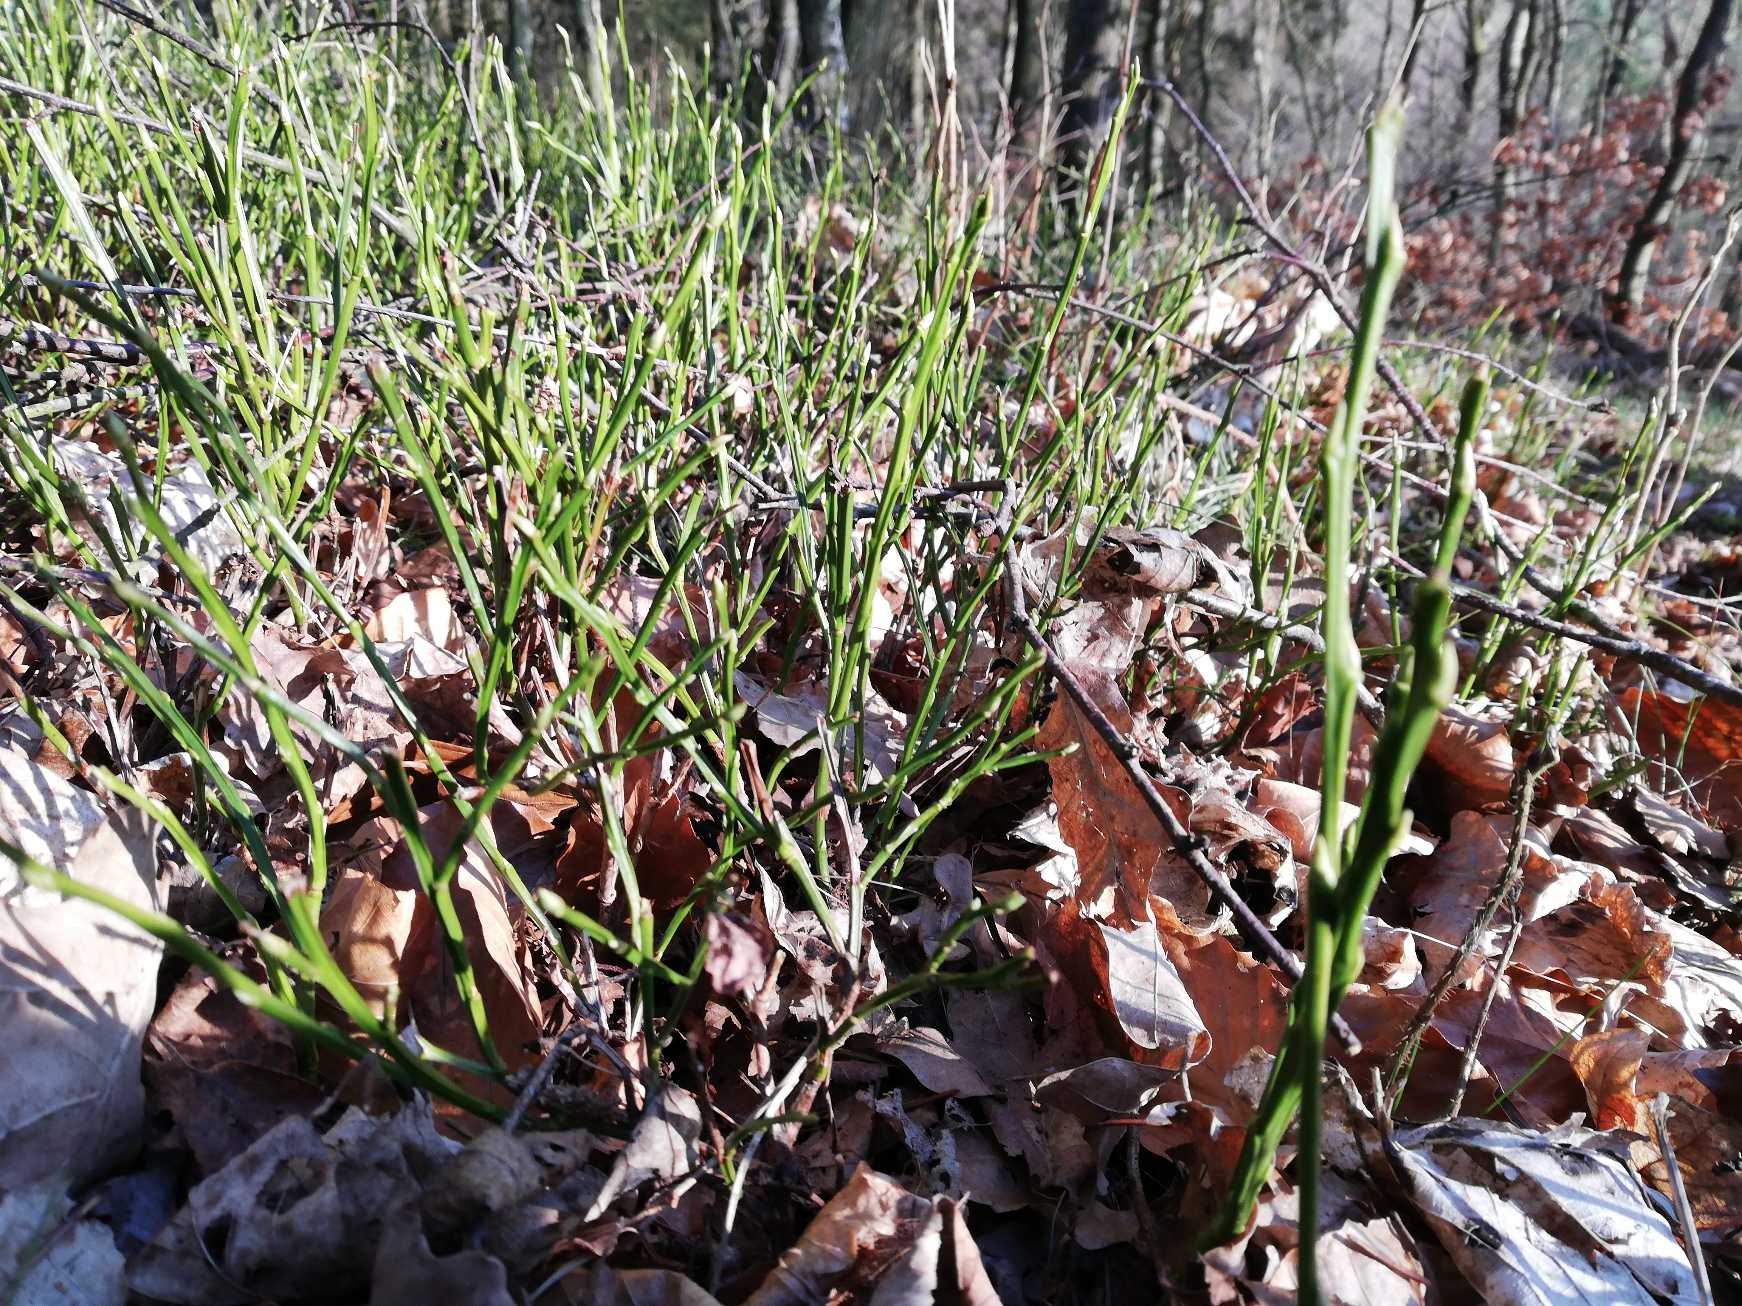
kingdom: Plantae
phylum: Tracheophyta
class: Magnoliopsida
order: Ericales
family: Ericaceae
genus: Vaccinium
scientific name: Vaccinium myrtillus
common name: Blåbær
